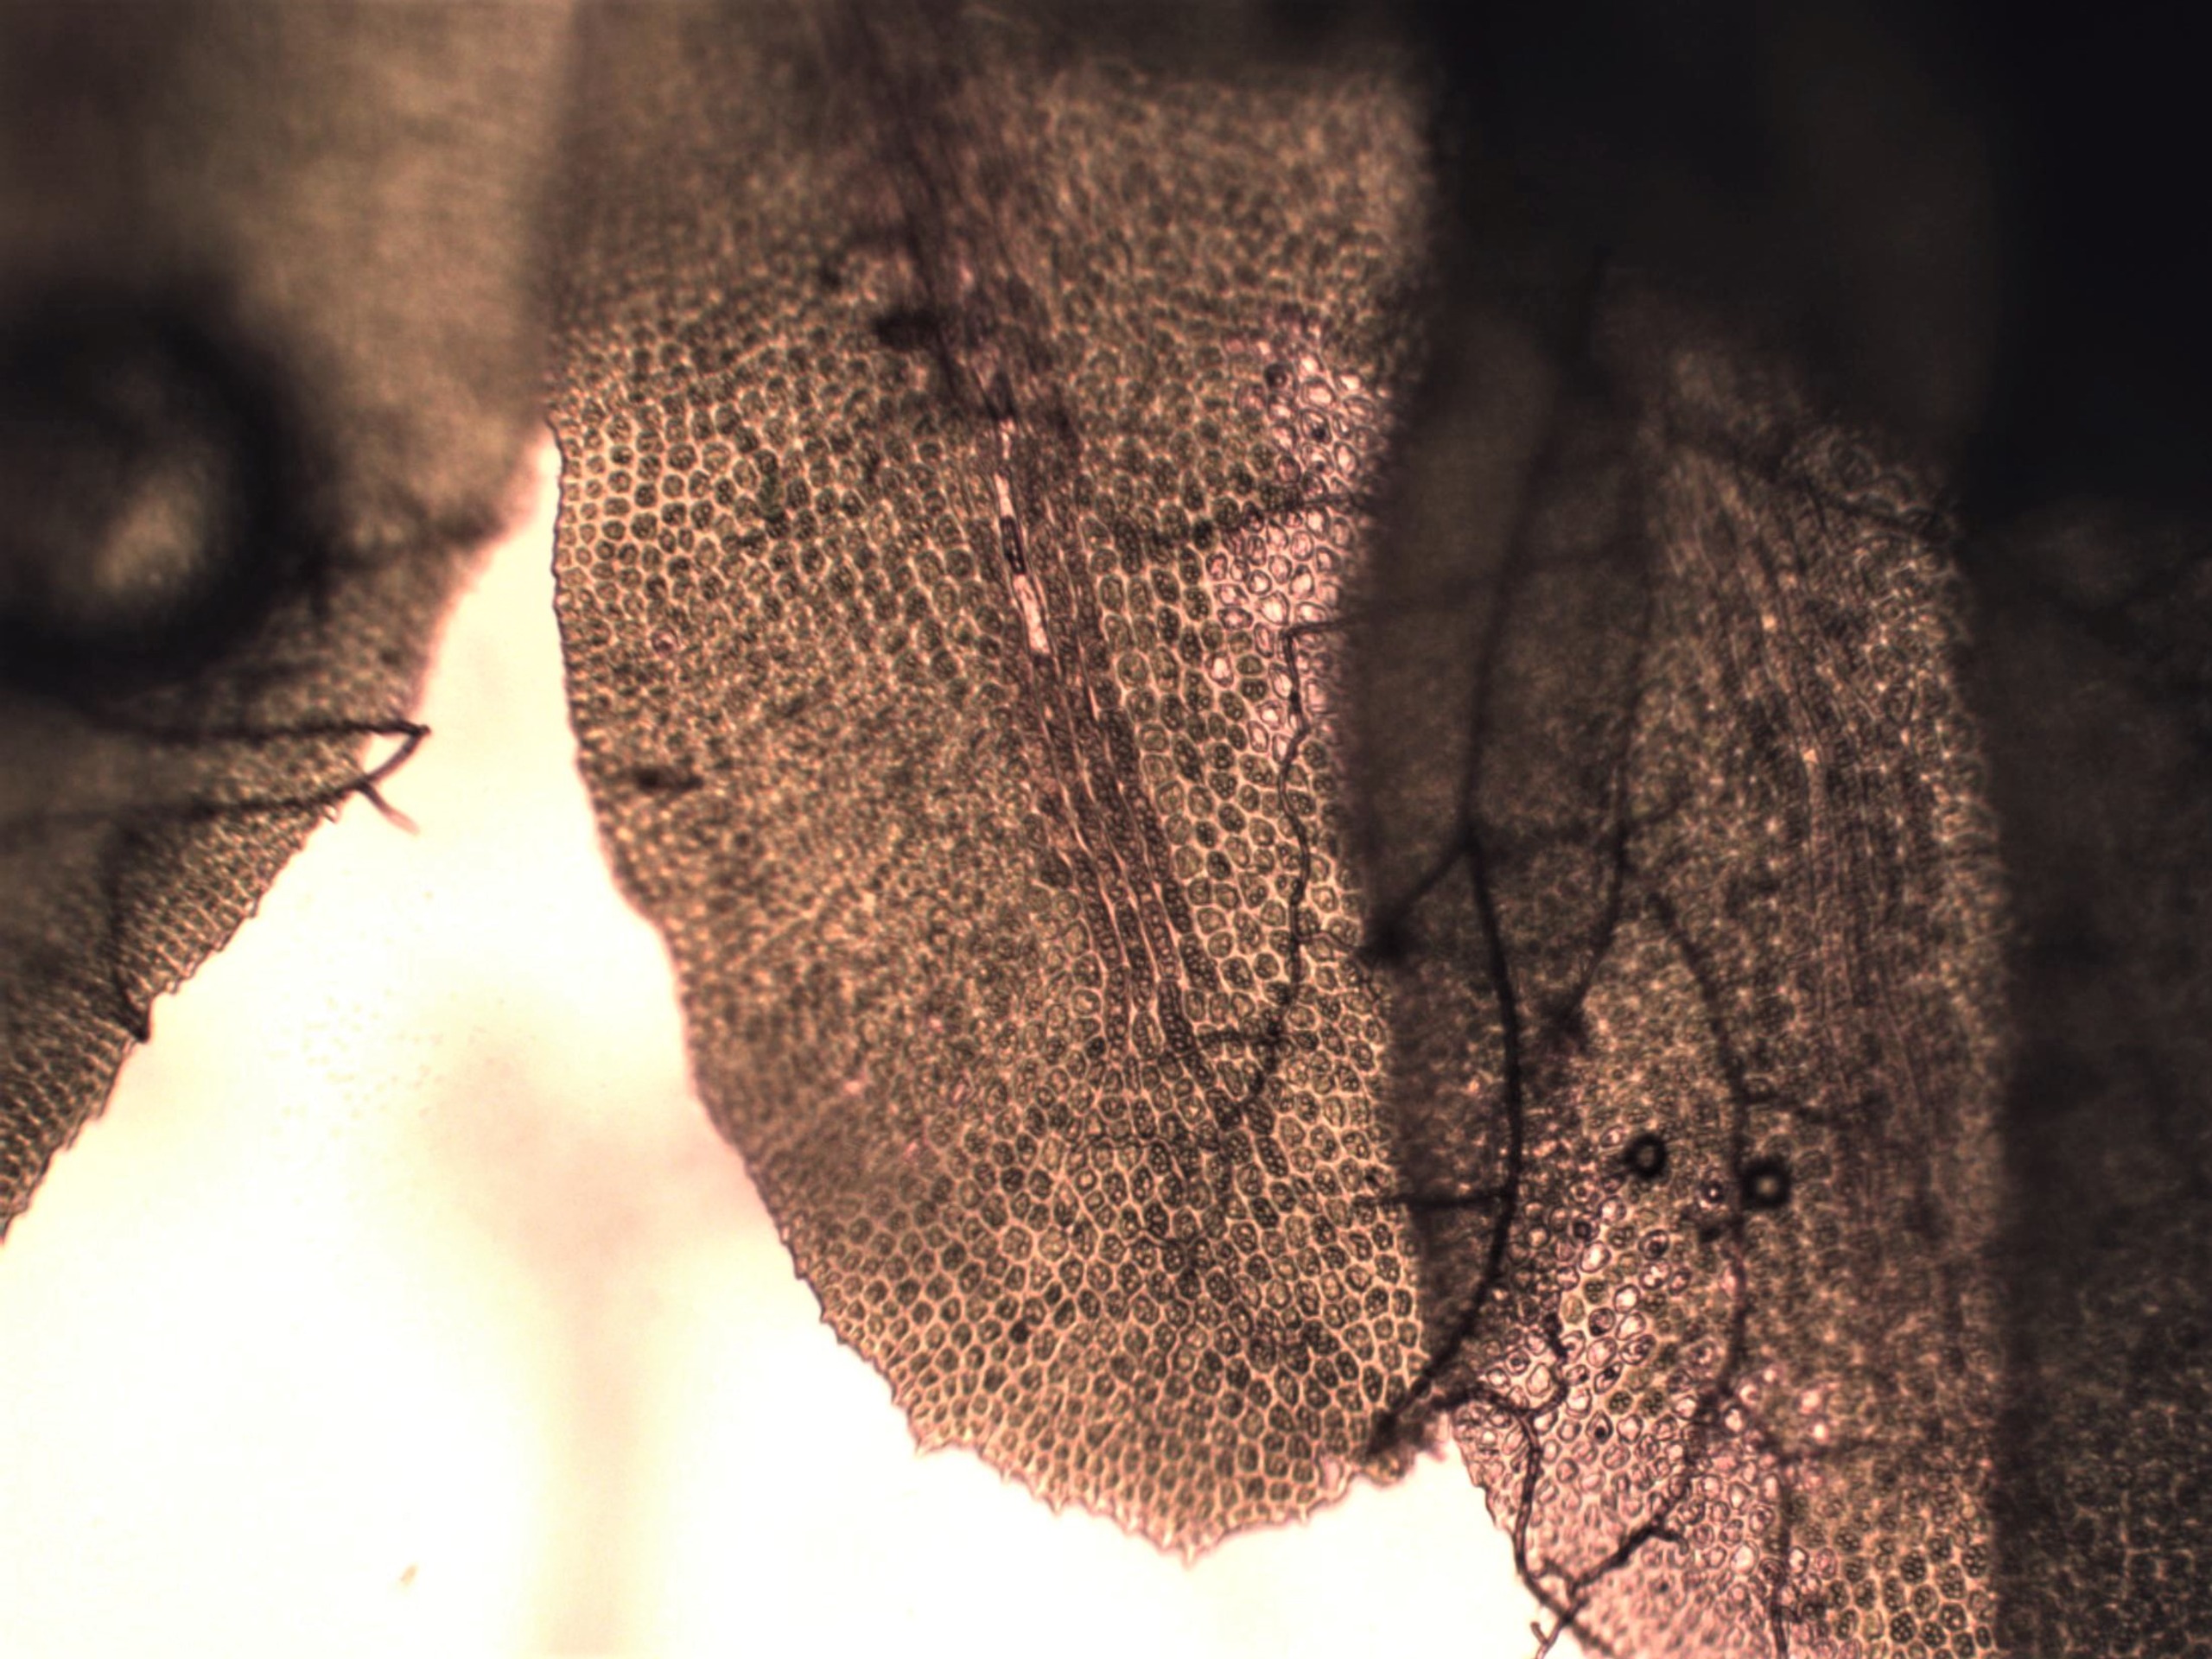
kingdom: Plantae
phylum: Marchantiophyta
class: Jungermanniopsida
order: Jungermanniales
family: Scapaniaceae
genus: Diplophyllum
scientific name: Diplophyllum albicans
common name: Stribet dobbeltblad
